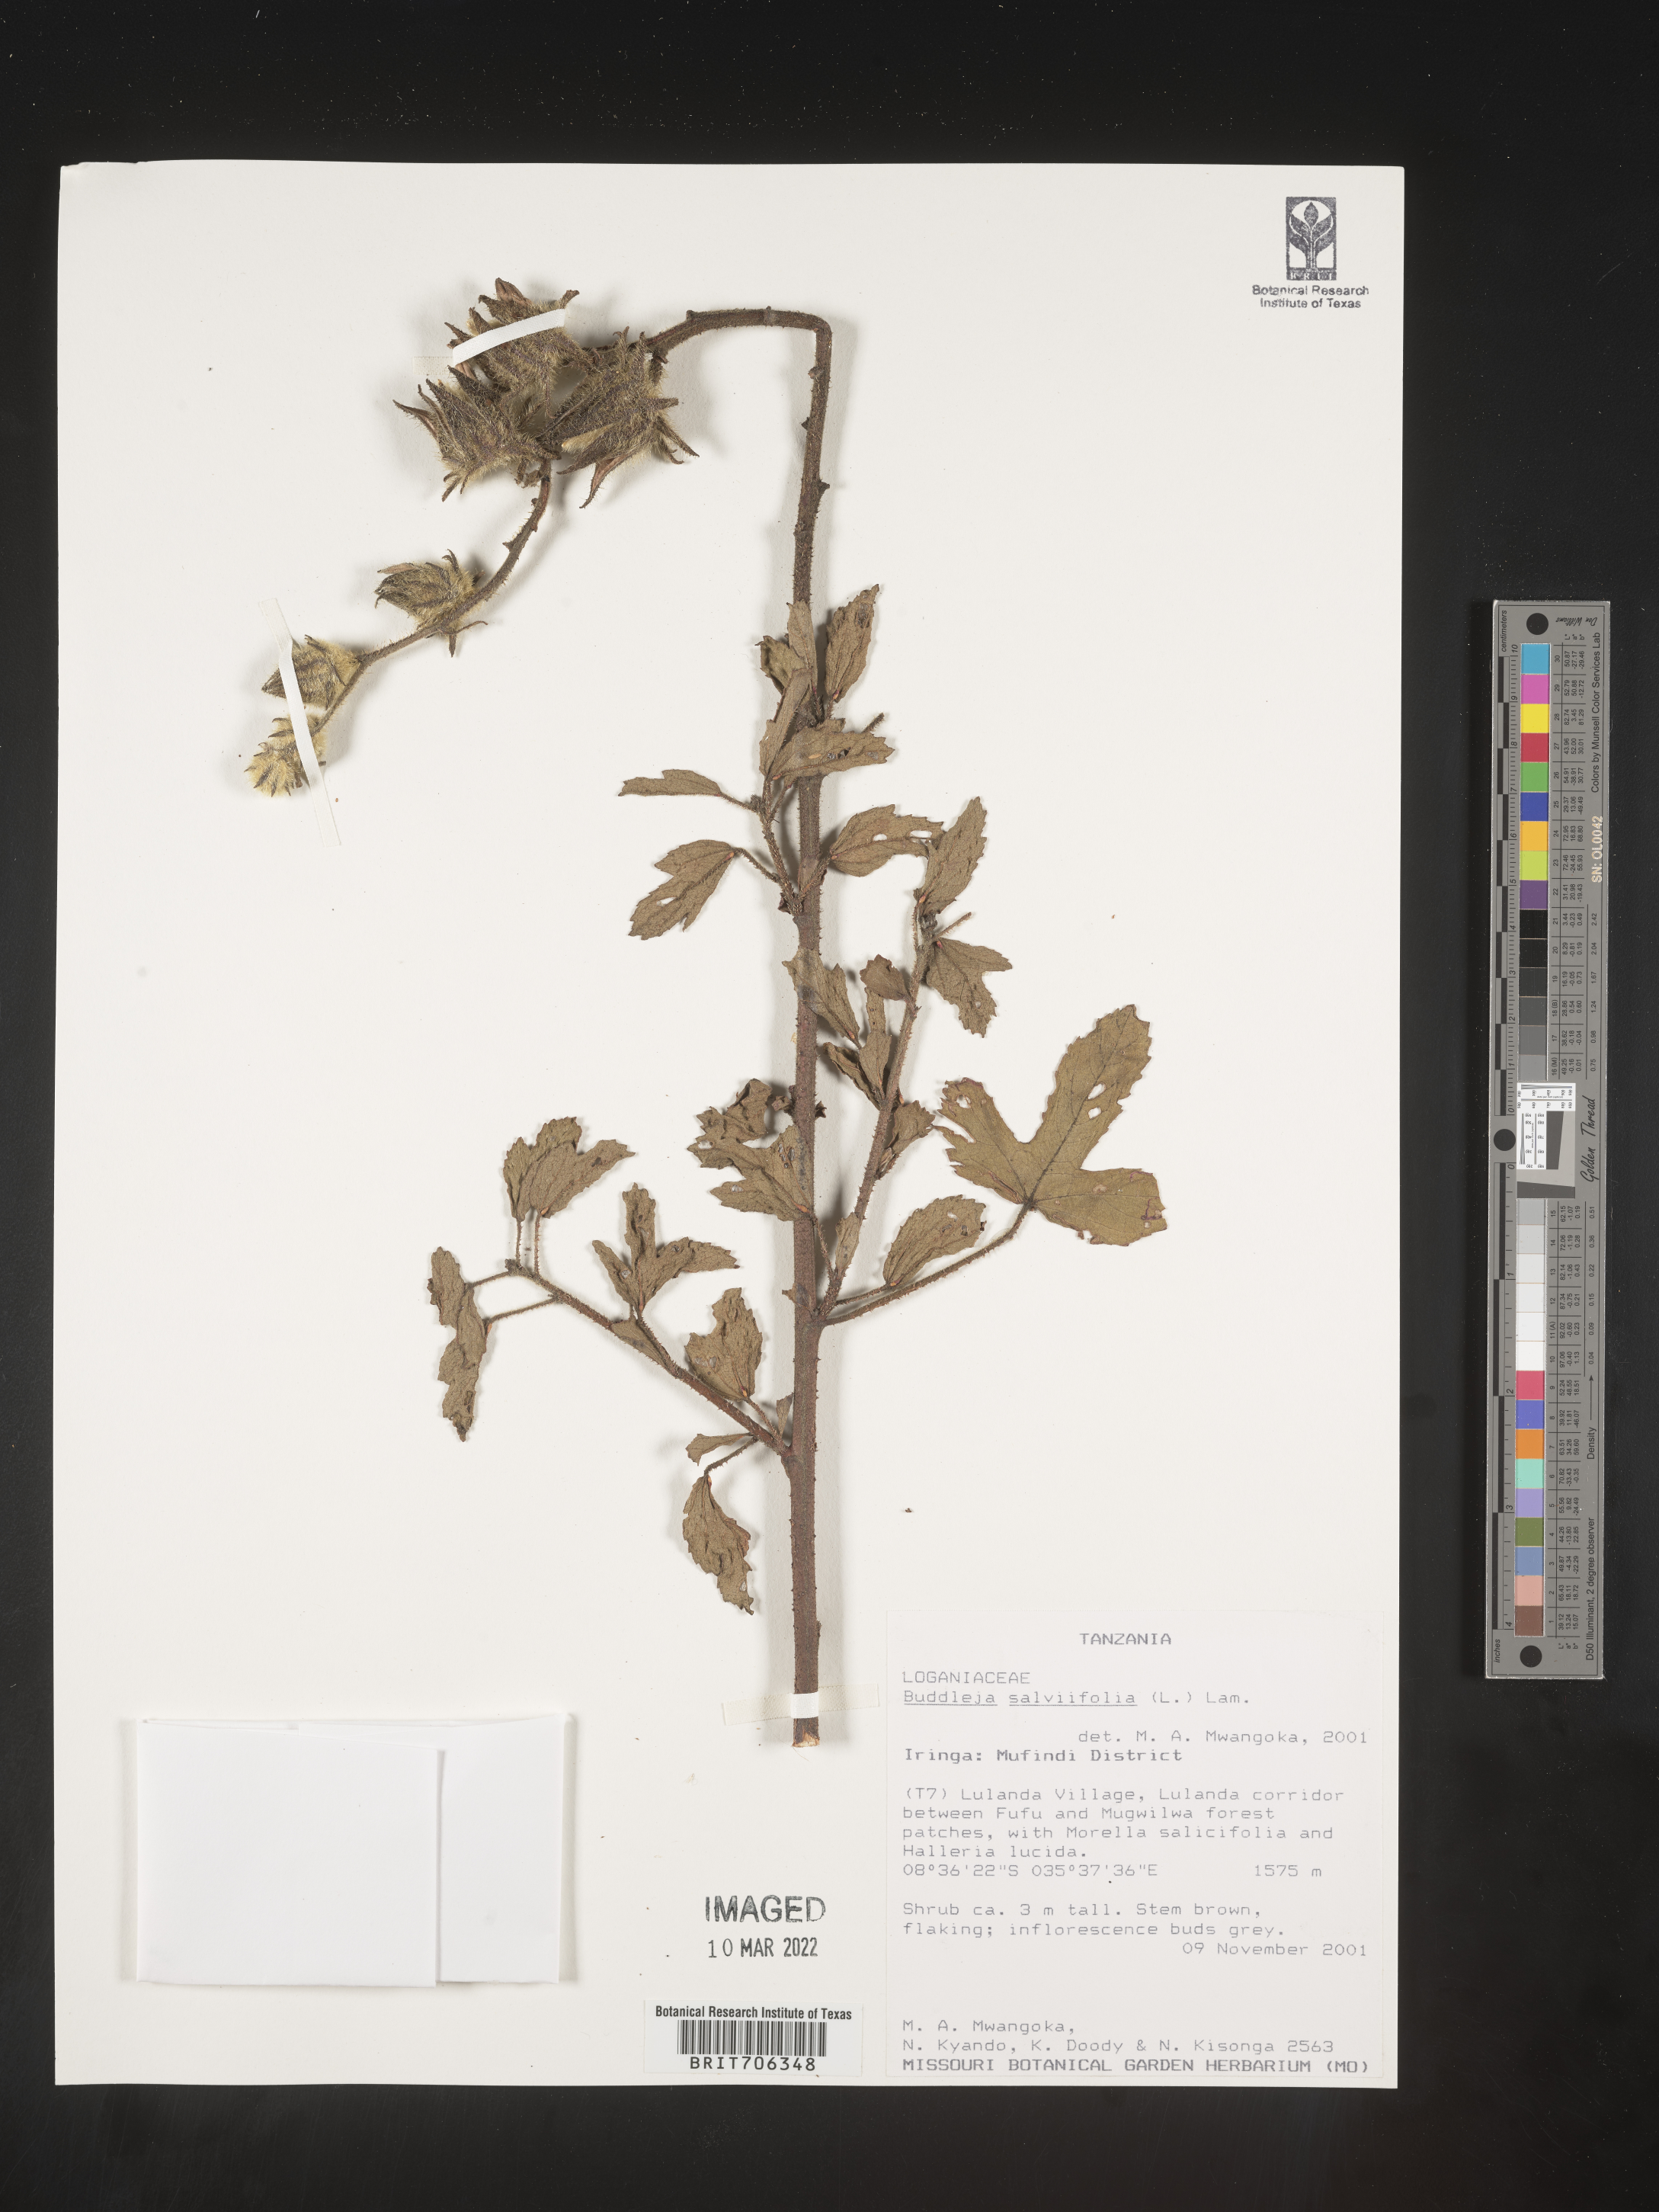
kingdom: Plantae
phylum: Tracheophyta
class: Magnoliopsida
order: Lamiales
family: Scrophulariaceae
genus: Buddleja
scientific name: Buddleja
